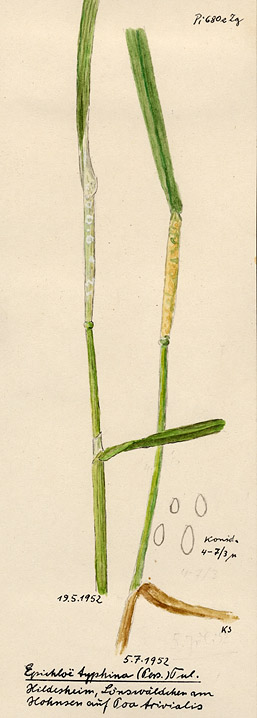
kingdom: Fungi
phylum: Ascomycota
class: Sordariomycetes
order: Hypocreales
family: Clavicipitaceae
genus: Epichloe
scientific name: Epichloe typhina
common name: Choke
